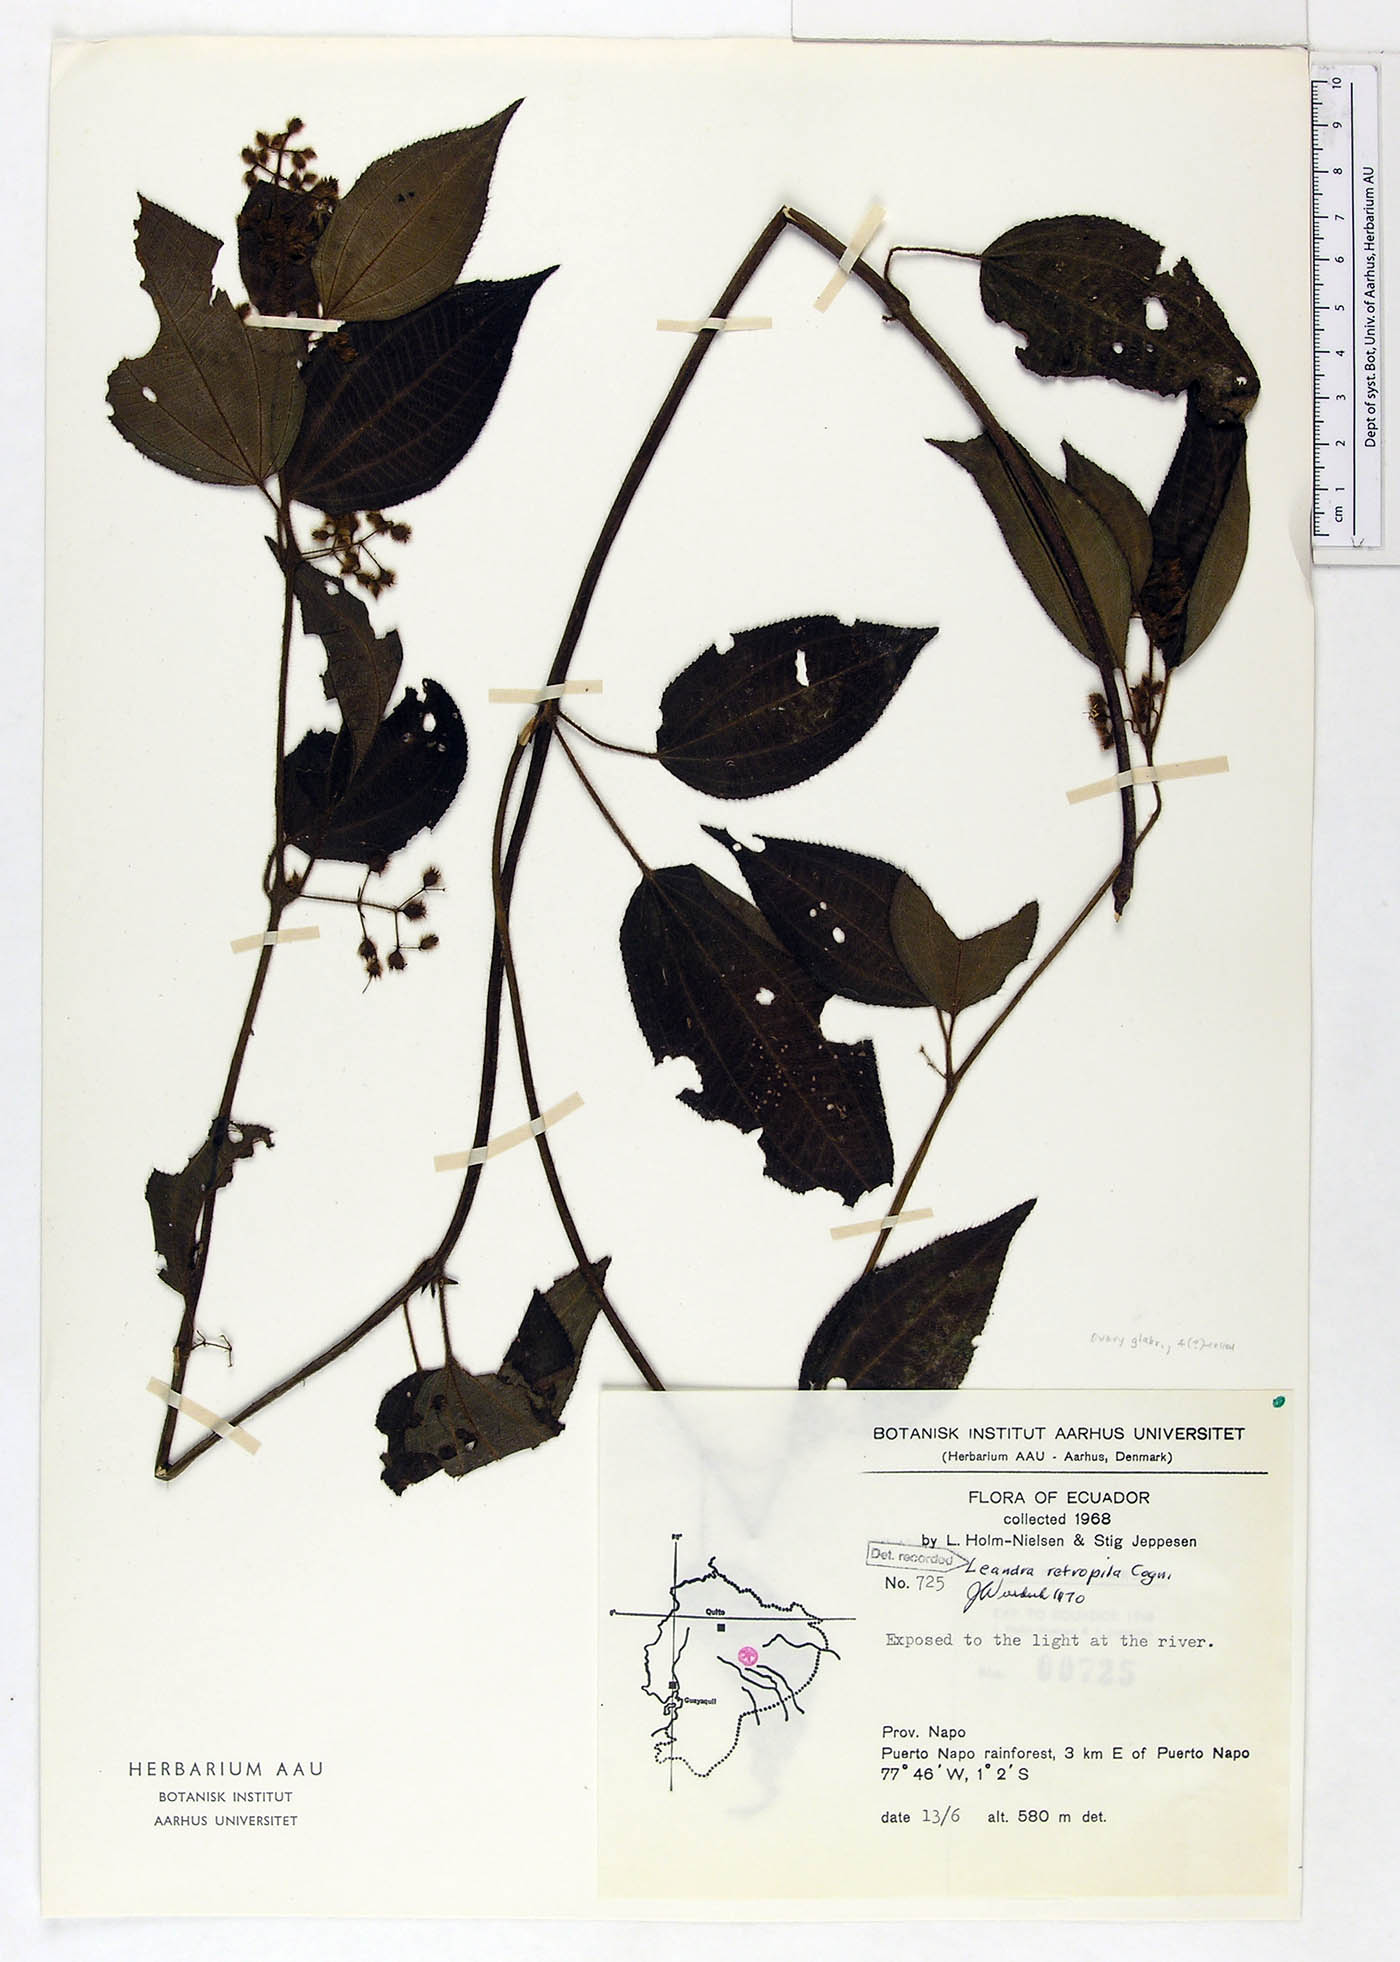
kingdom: Plantae
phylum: Tracheophyta
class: Magnoliopsida
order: Myrtales
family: Melastomataceae
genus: Miconia
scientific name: Miconia secunretropila
